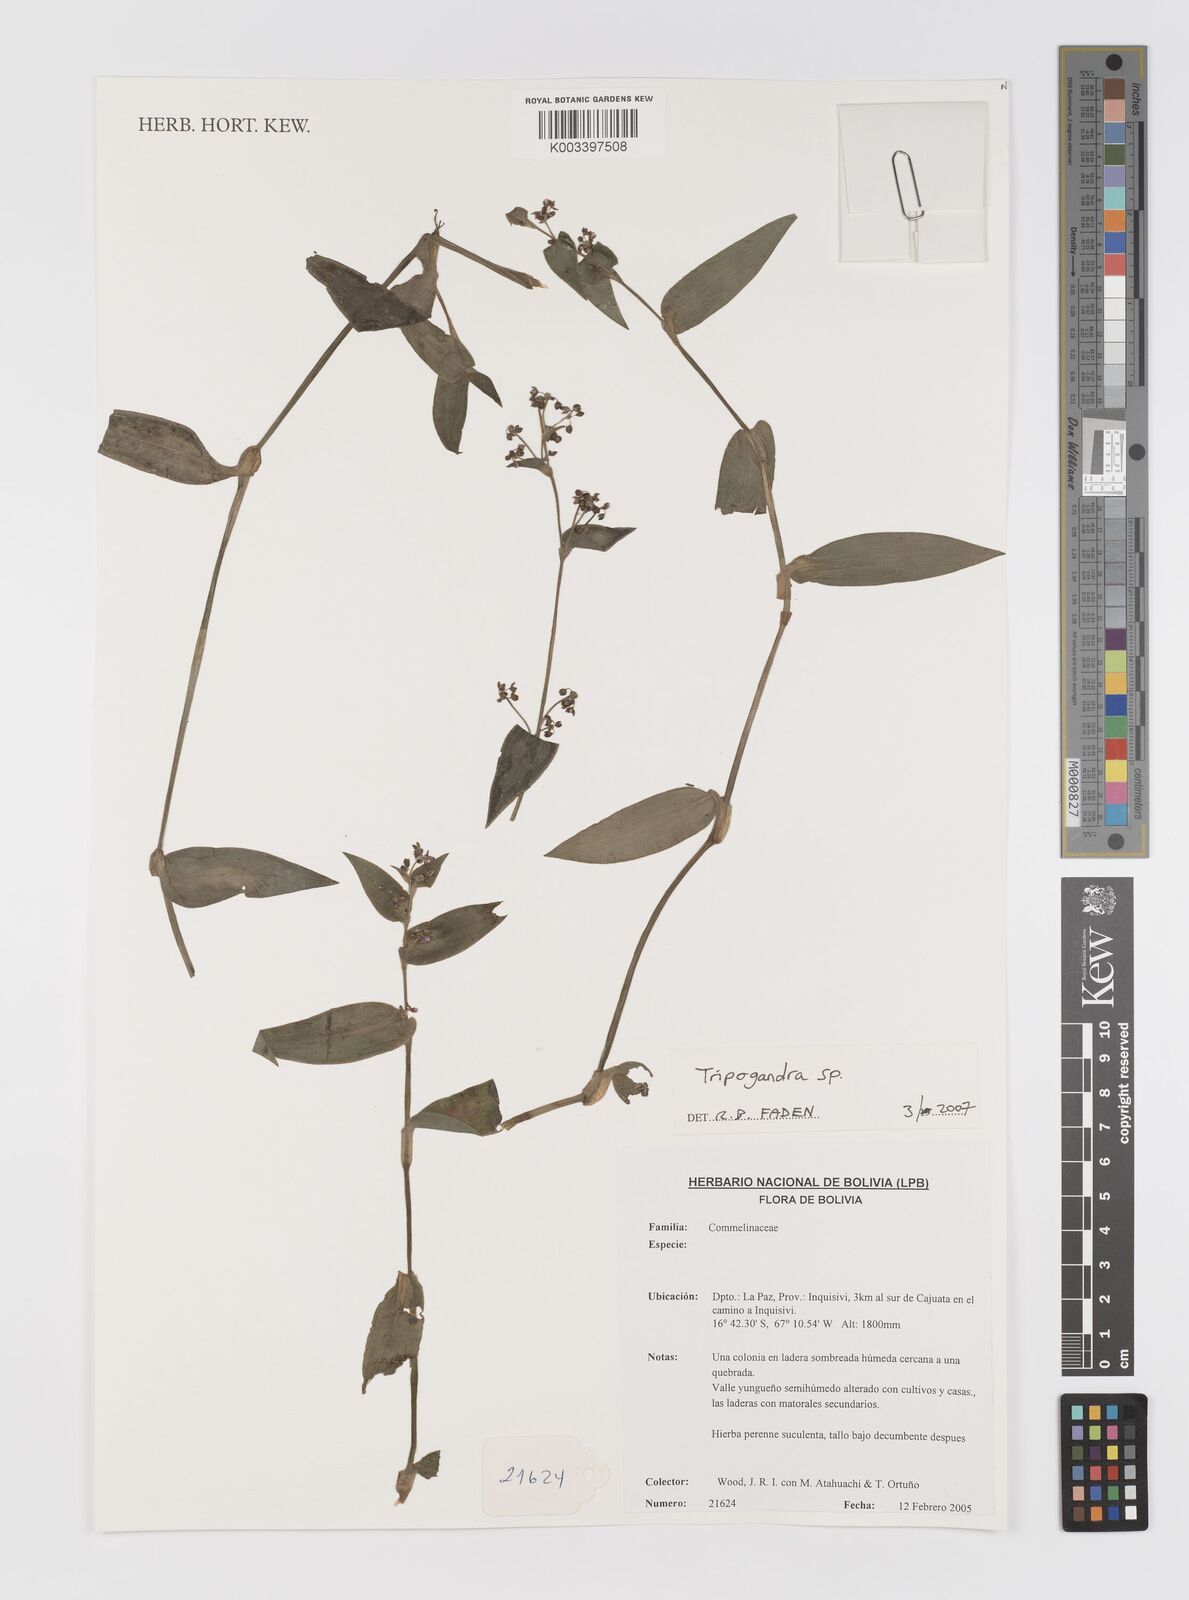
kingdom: Plantae
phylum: Tracheophyta
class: Liliopsida
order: Commelinales
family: Commelinaceae
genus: Callisia
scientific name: Callisia
